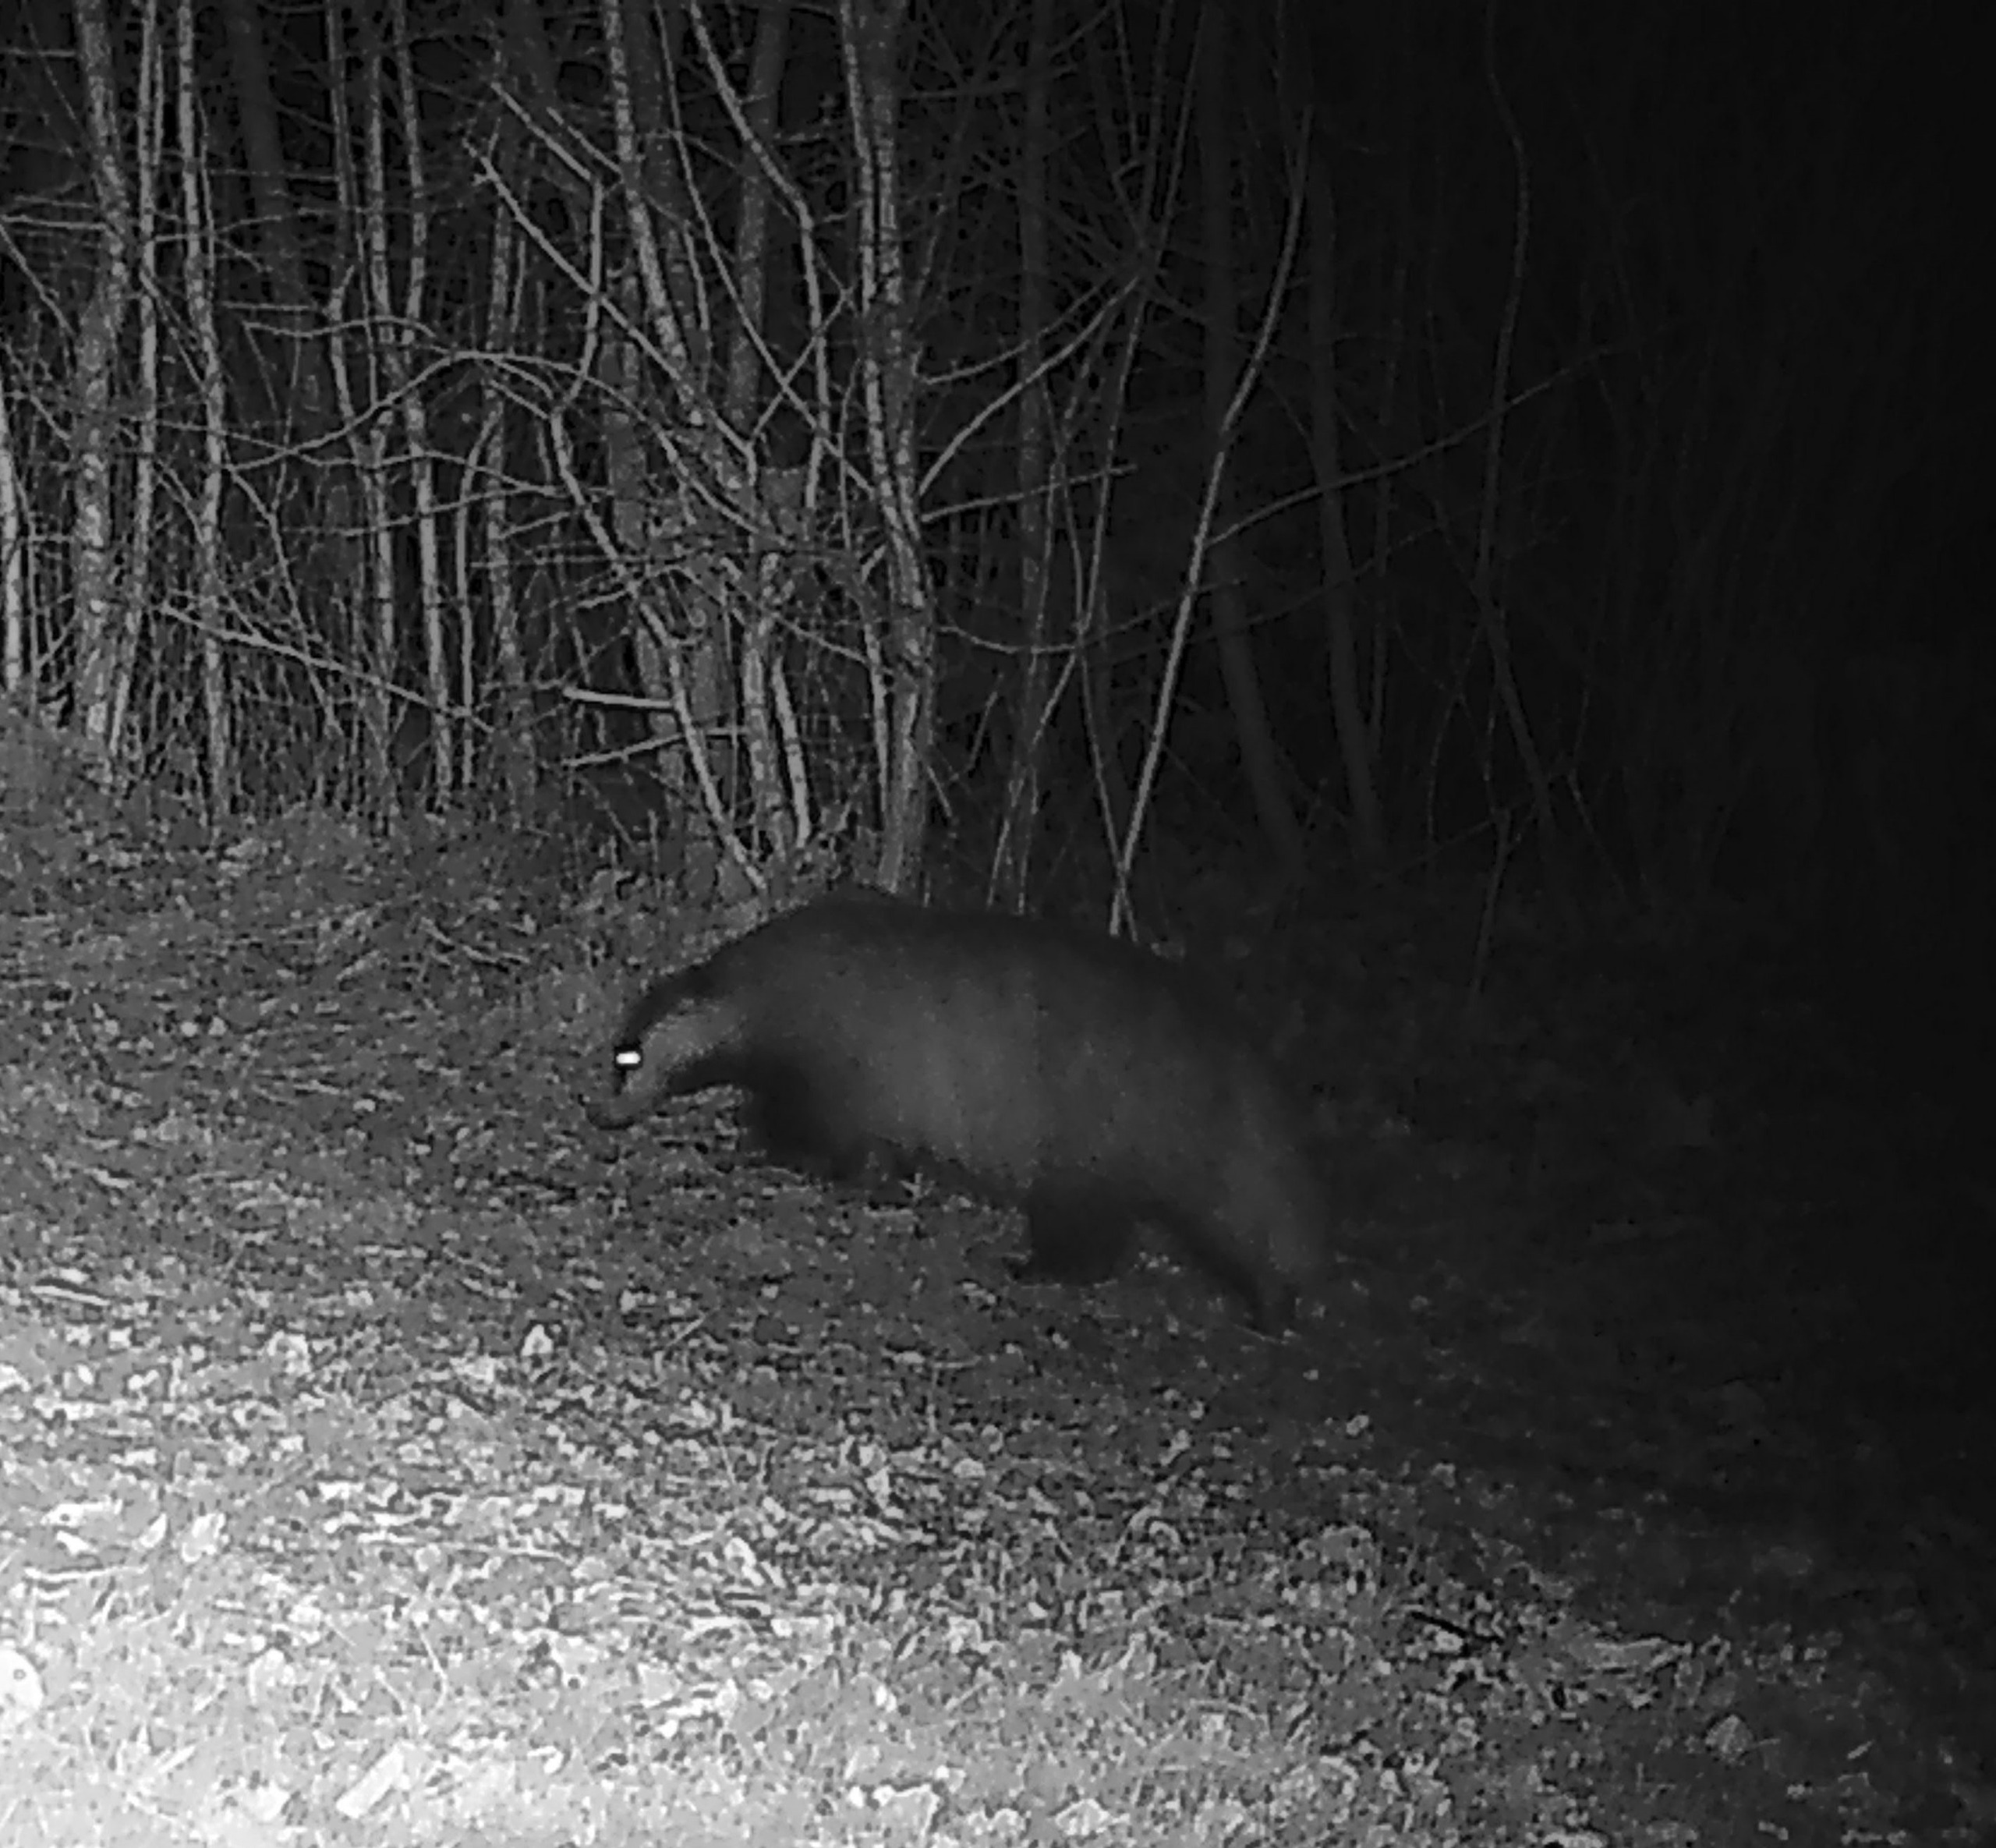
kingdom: Animalia
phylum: Chordata
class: Mammalia
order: Carnivora
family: Mustelidae
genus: Meles
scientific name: Meles meles
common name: Grævling
